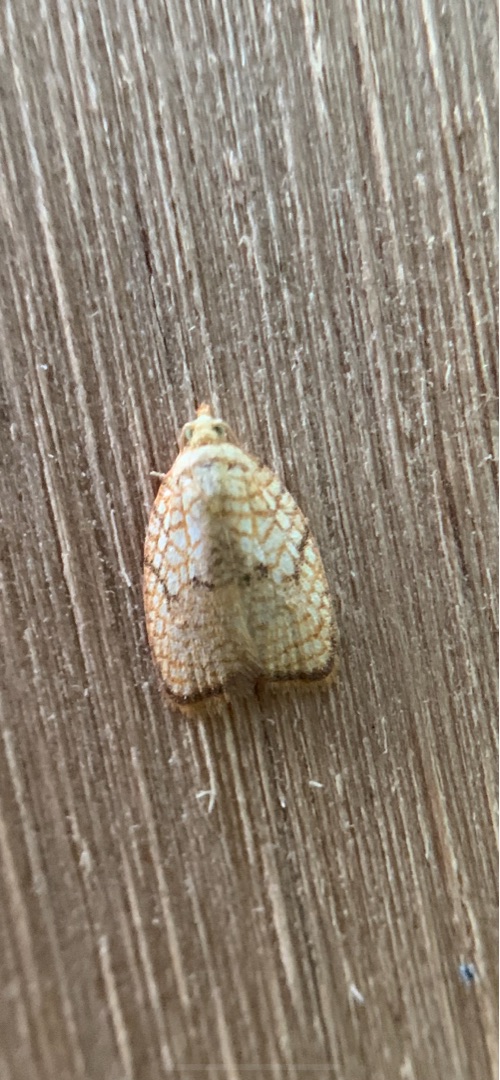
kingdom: Animalia
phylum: Arthropoda
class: Insecta
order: Lepidoptera
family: Tortricidae
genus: Acleris
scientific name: Acleris forsskaleana
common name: Gul ahornvikler
